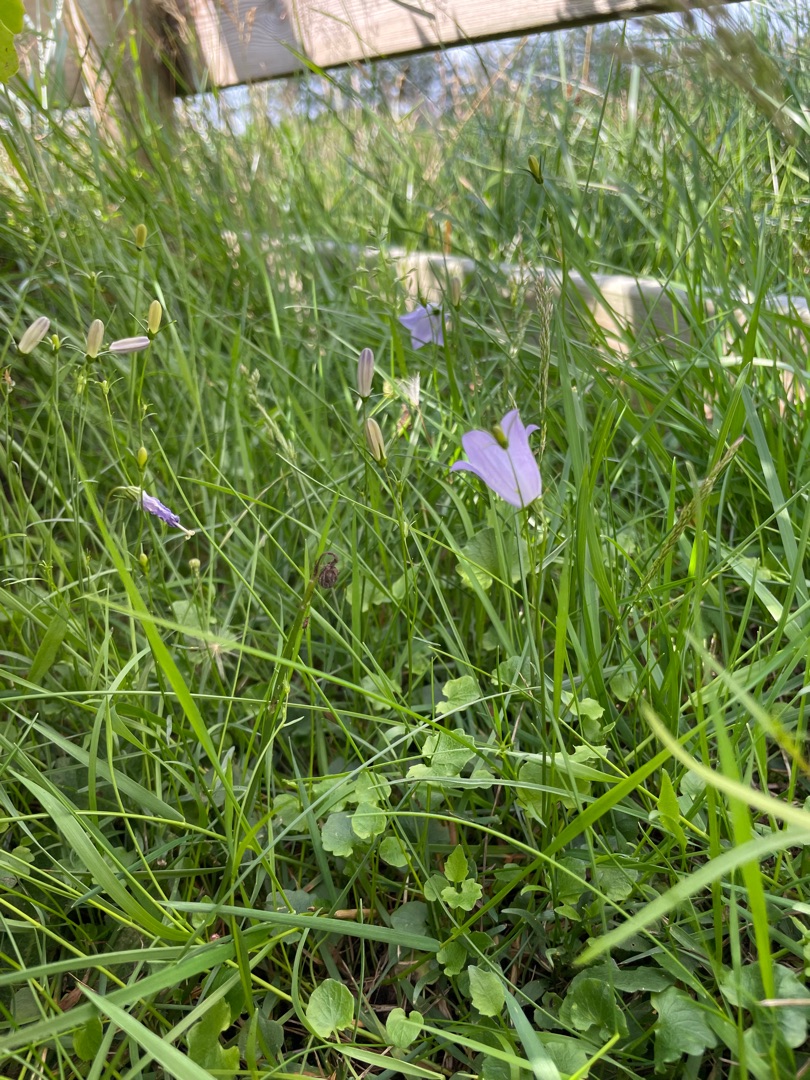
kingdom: Plantae
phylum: Tracheophyta
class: Magnoliopsida
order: Asterales
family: Campanulaceae
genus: Campanula
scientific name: Campanula rotundifolia
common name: Liden klokke
